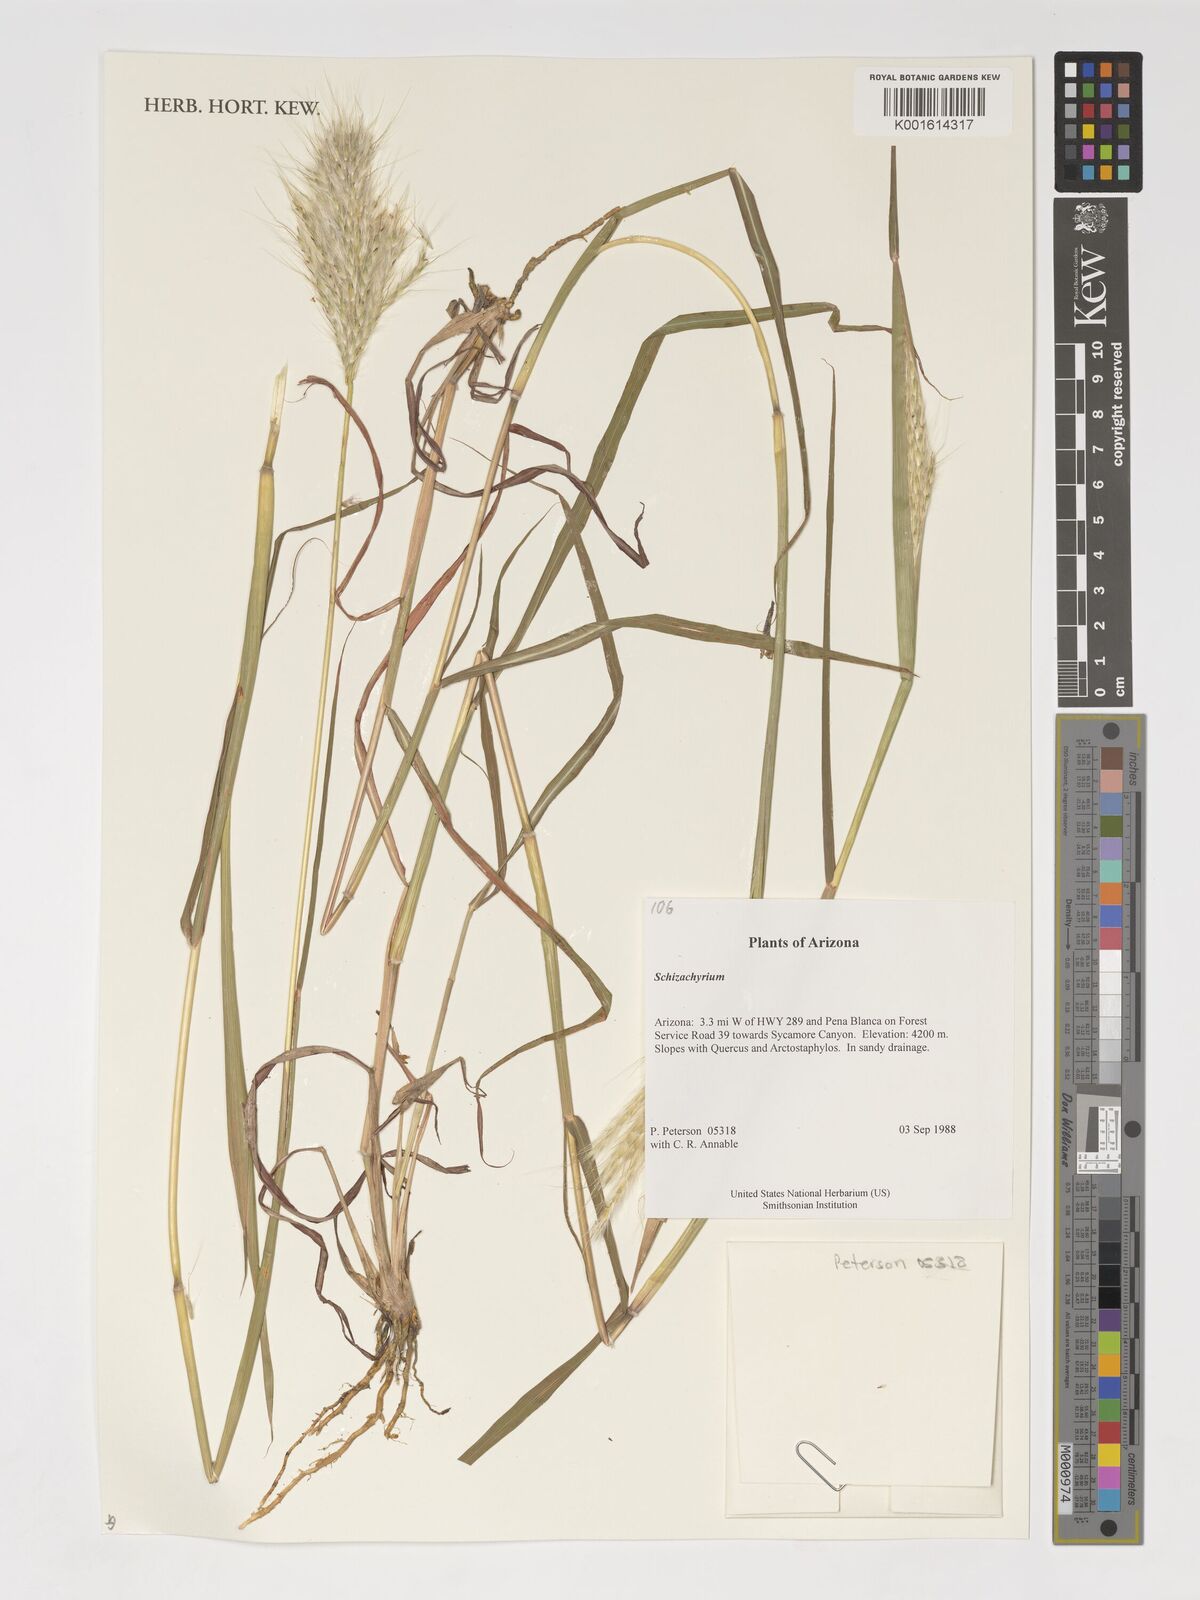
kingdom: Plantae
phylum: Tracheophyta
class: Liliopsida
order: Poales
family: Poaceae
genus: Schizachyrium
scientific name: Schizachyrium
